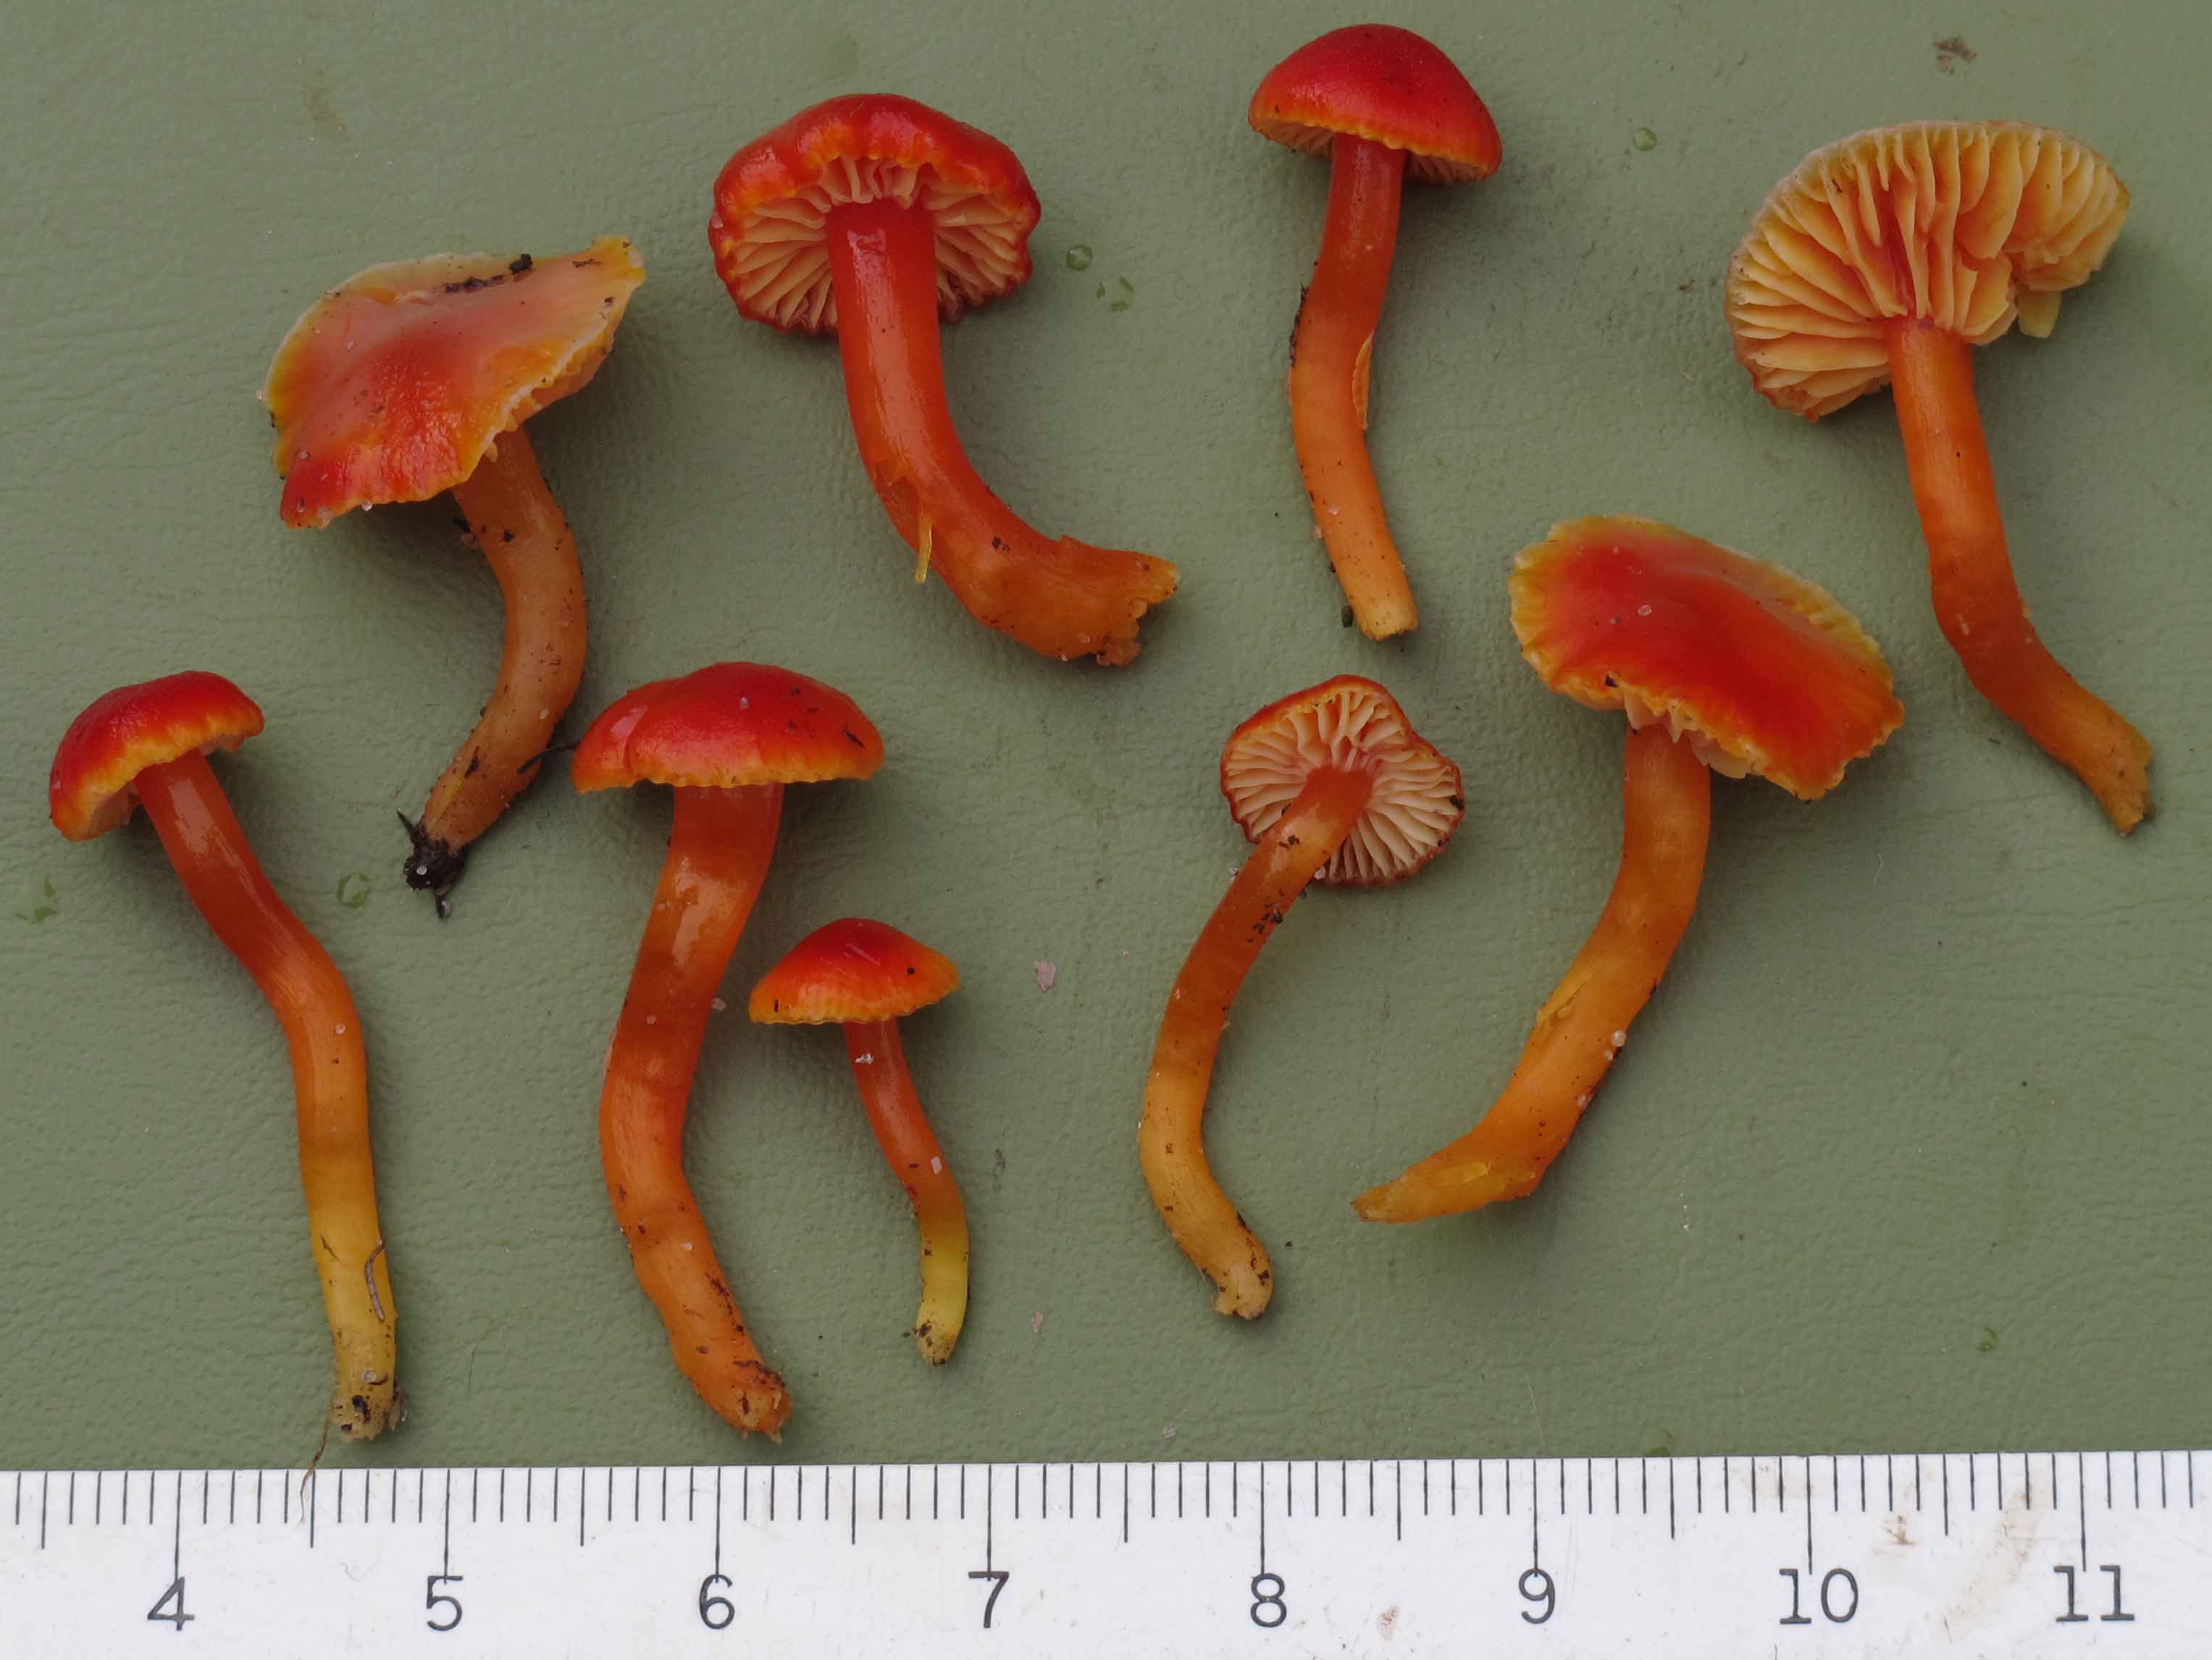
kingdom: Fungi
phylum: Basidiomycota
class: Agaricomycetes
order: Agaricales
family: Hygrophoraceae
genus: Hygrocybe
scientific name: Hygrocybe insipida
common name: liden vokshat
